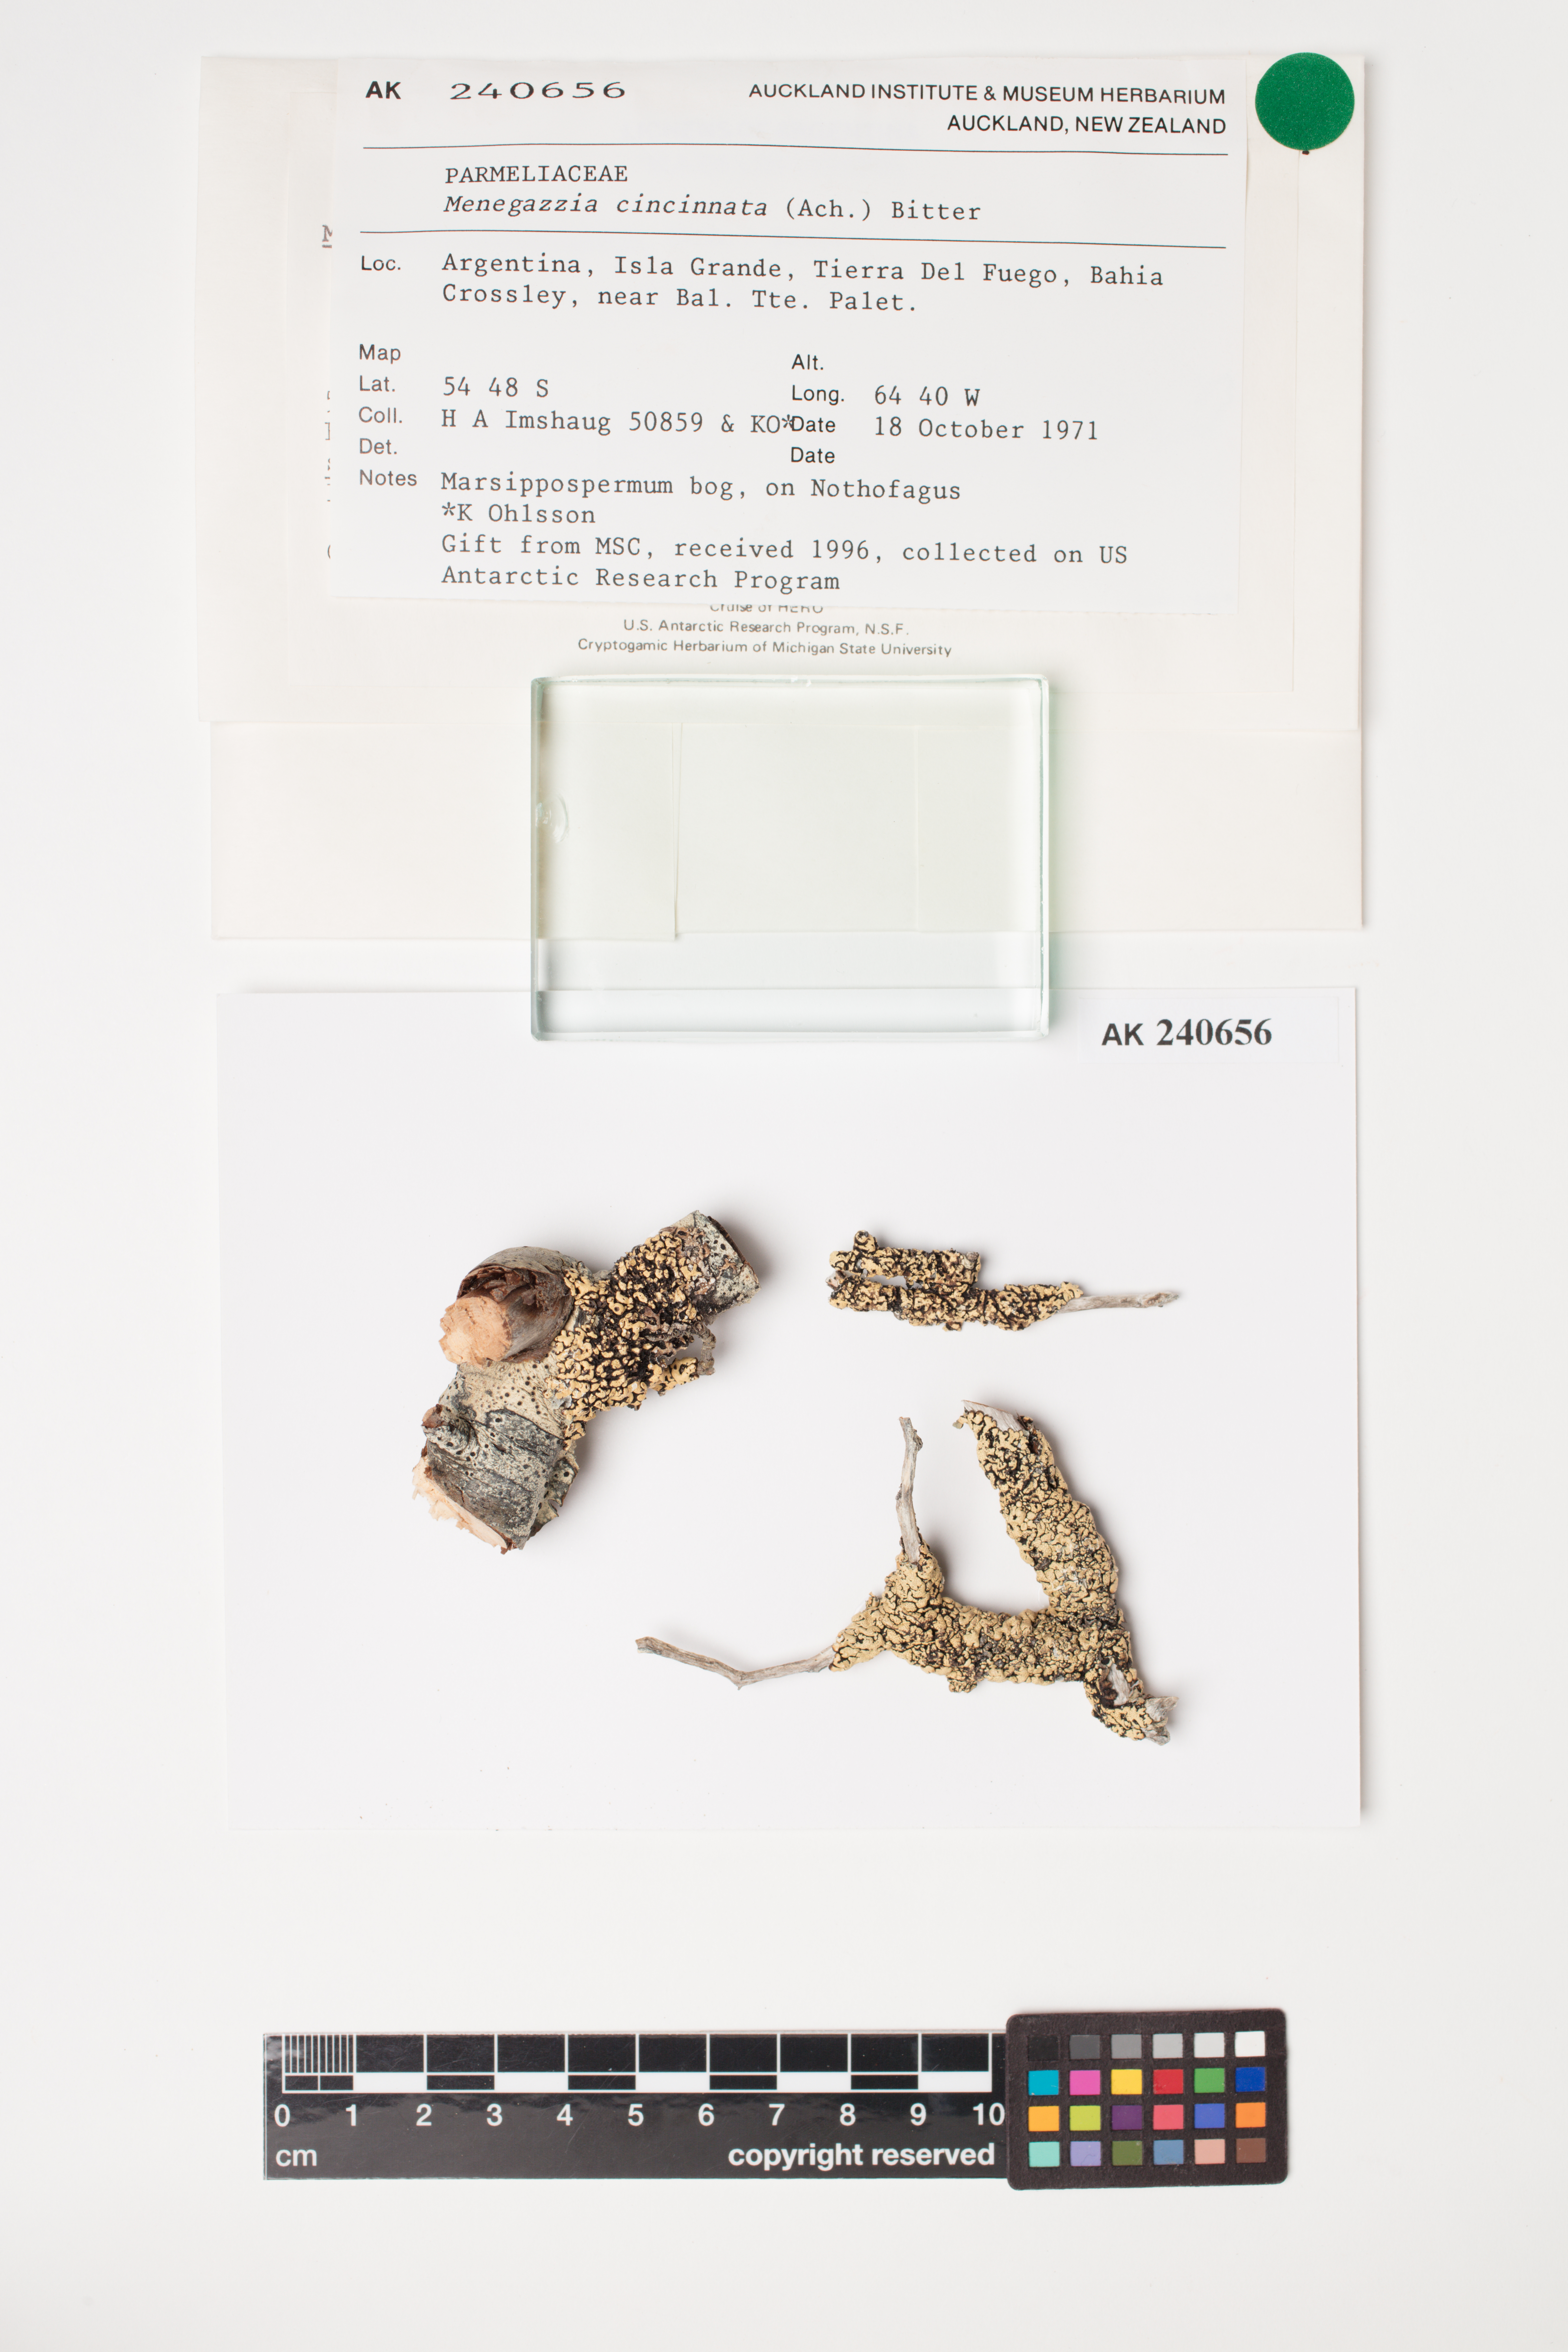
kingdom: Fungi
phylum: Ascomycota
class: Lecanoromycetes
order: Lecanorales
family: Parmeliaceae
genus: Menegazzia
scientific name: Menegazzia cincinnata
